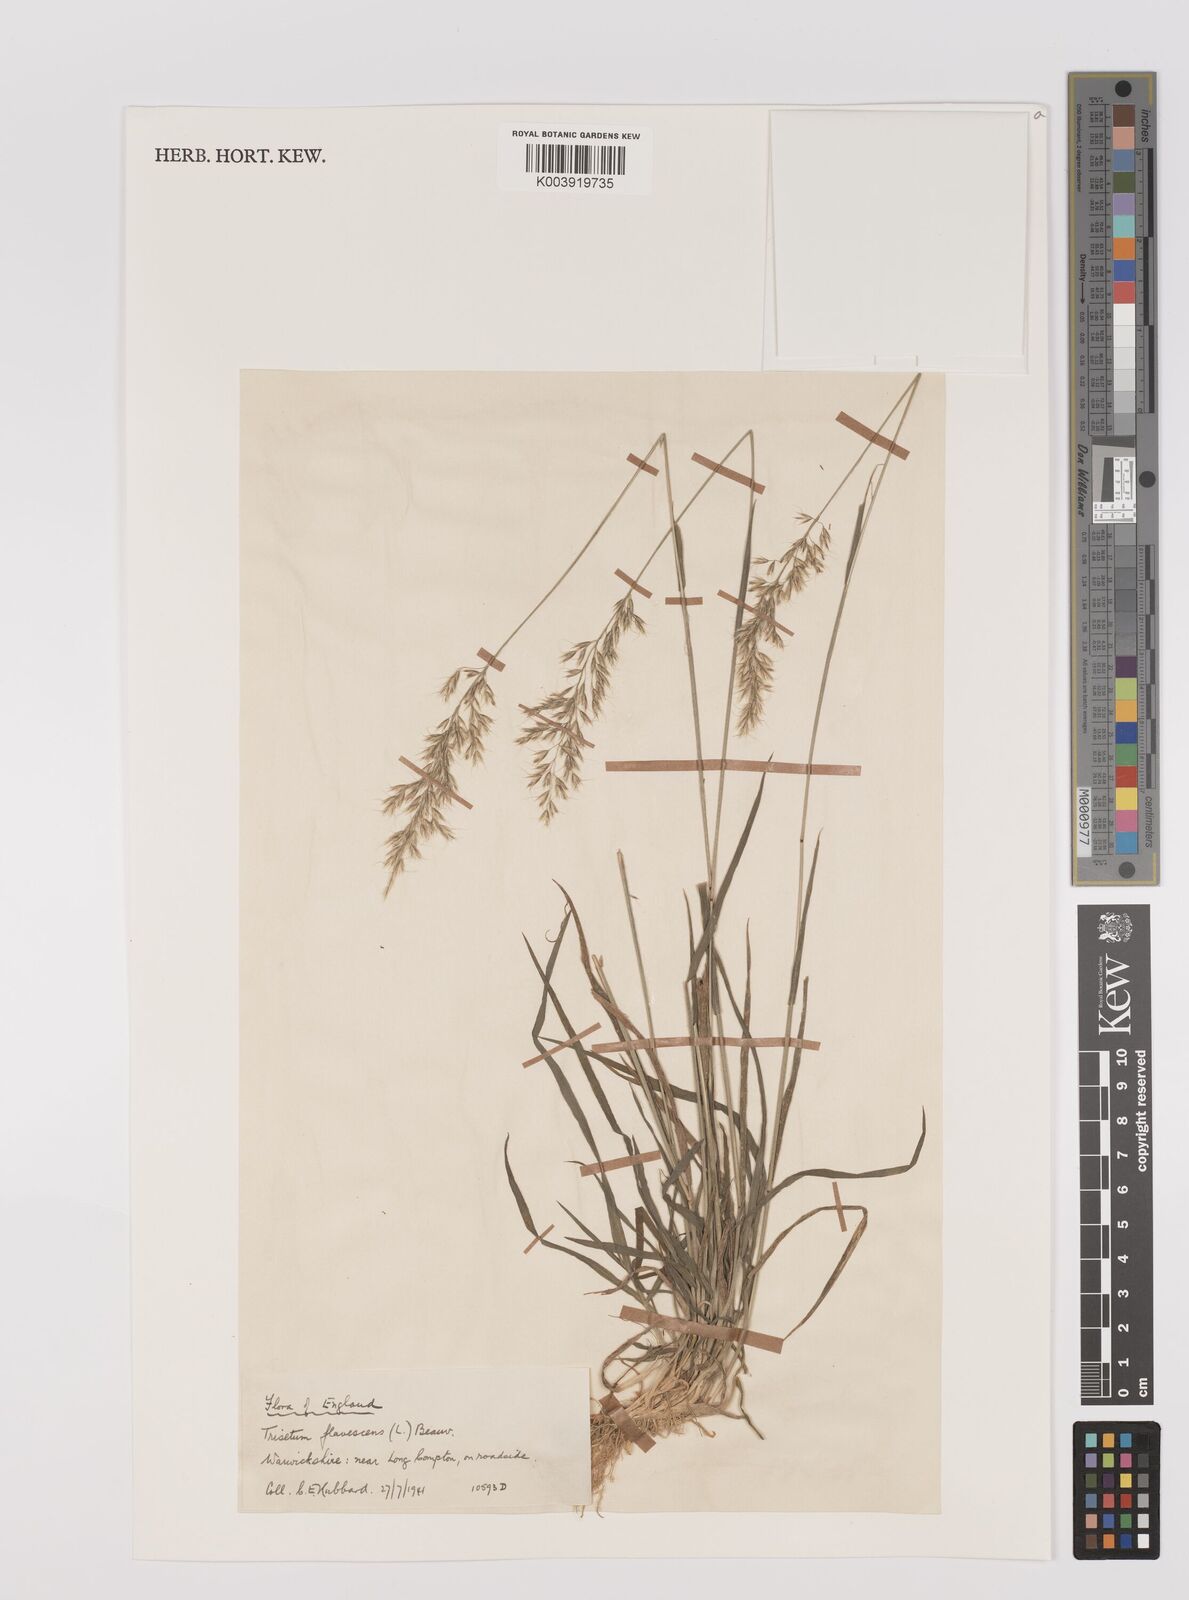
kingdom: Plantae
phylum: Tracheophyta
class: Liliopsida
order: Poales
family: Poaceae
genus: Trisetum
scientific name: Trisetum flavescens
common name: Yellow oat-grass
